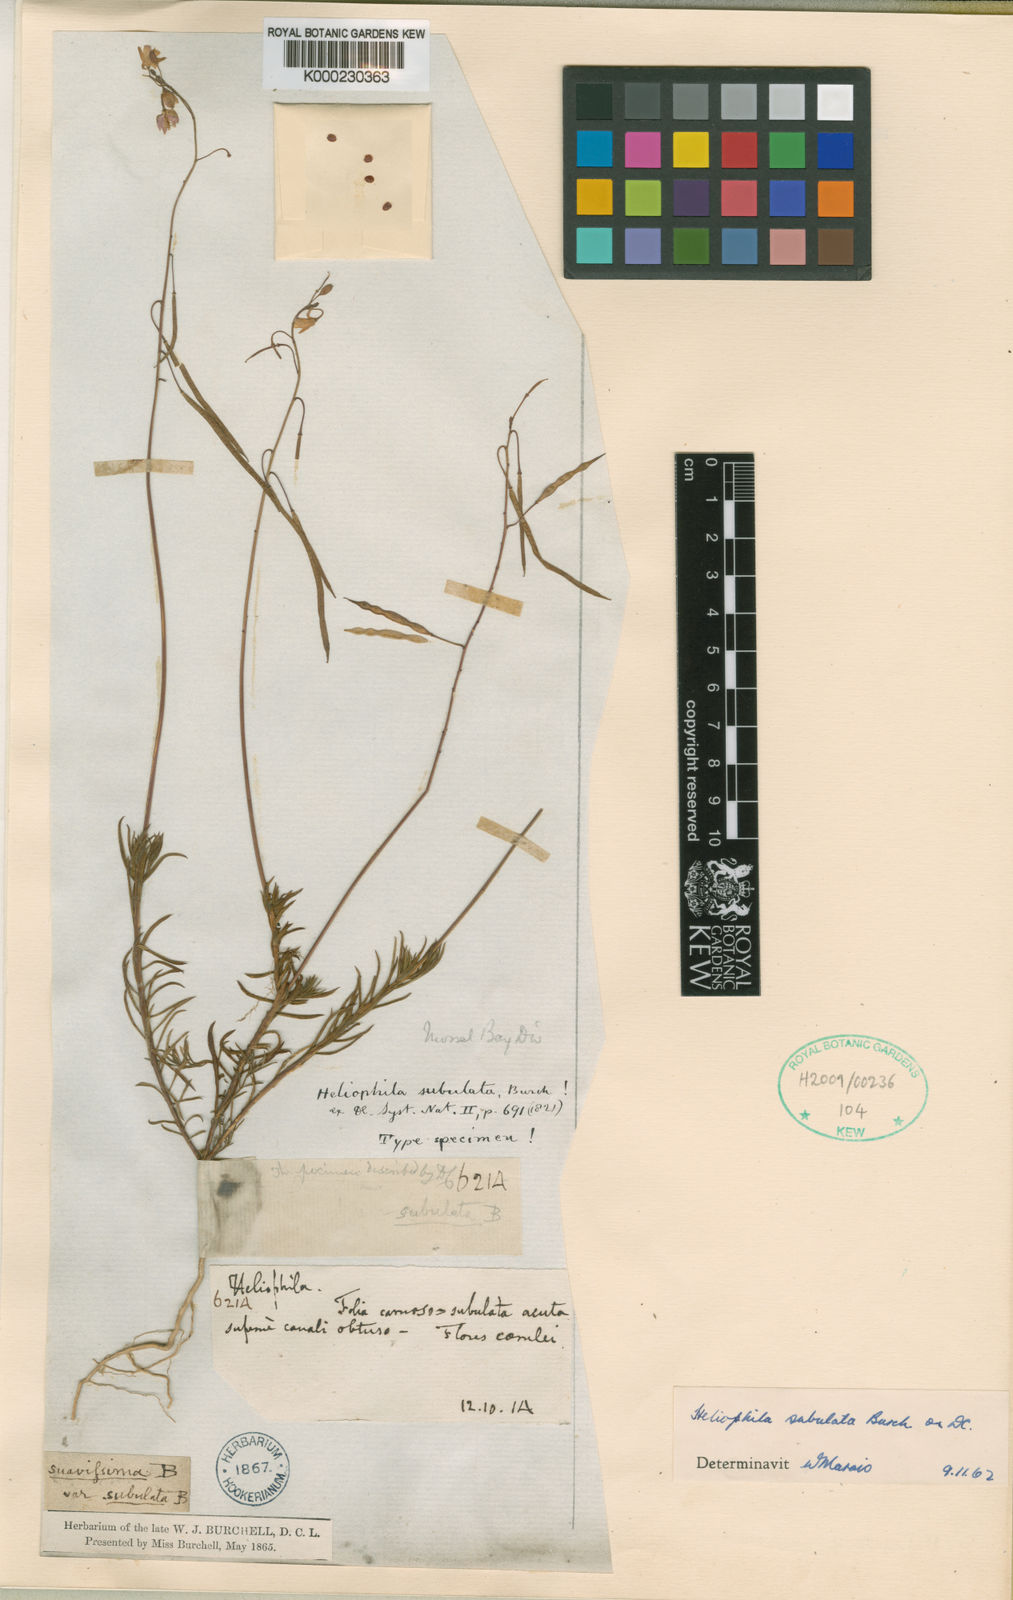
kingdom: Plantae
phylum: Tracheophyta
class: Magnoliopsida
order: Brassicales
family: Brassicaceae
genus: Heliophila
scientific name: Heliophila subulata
